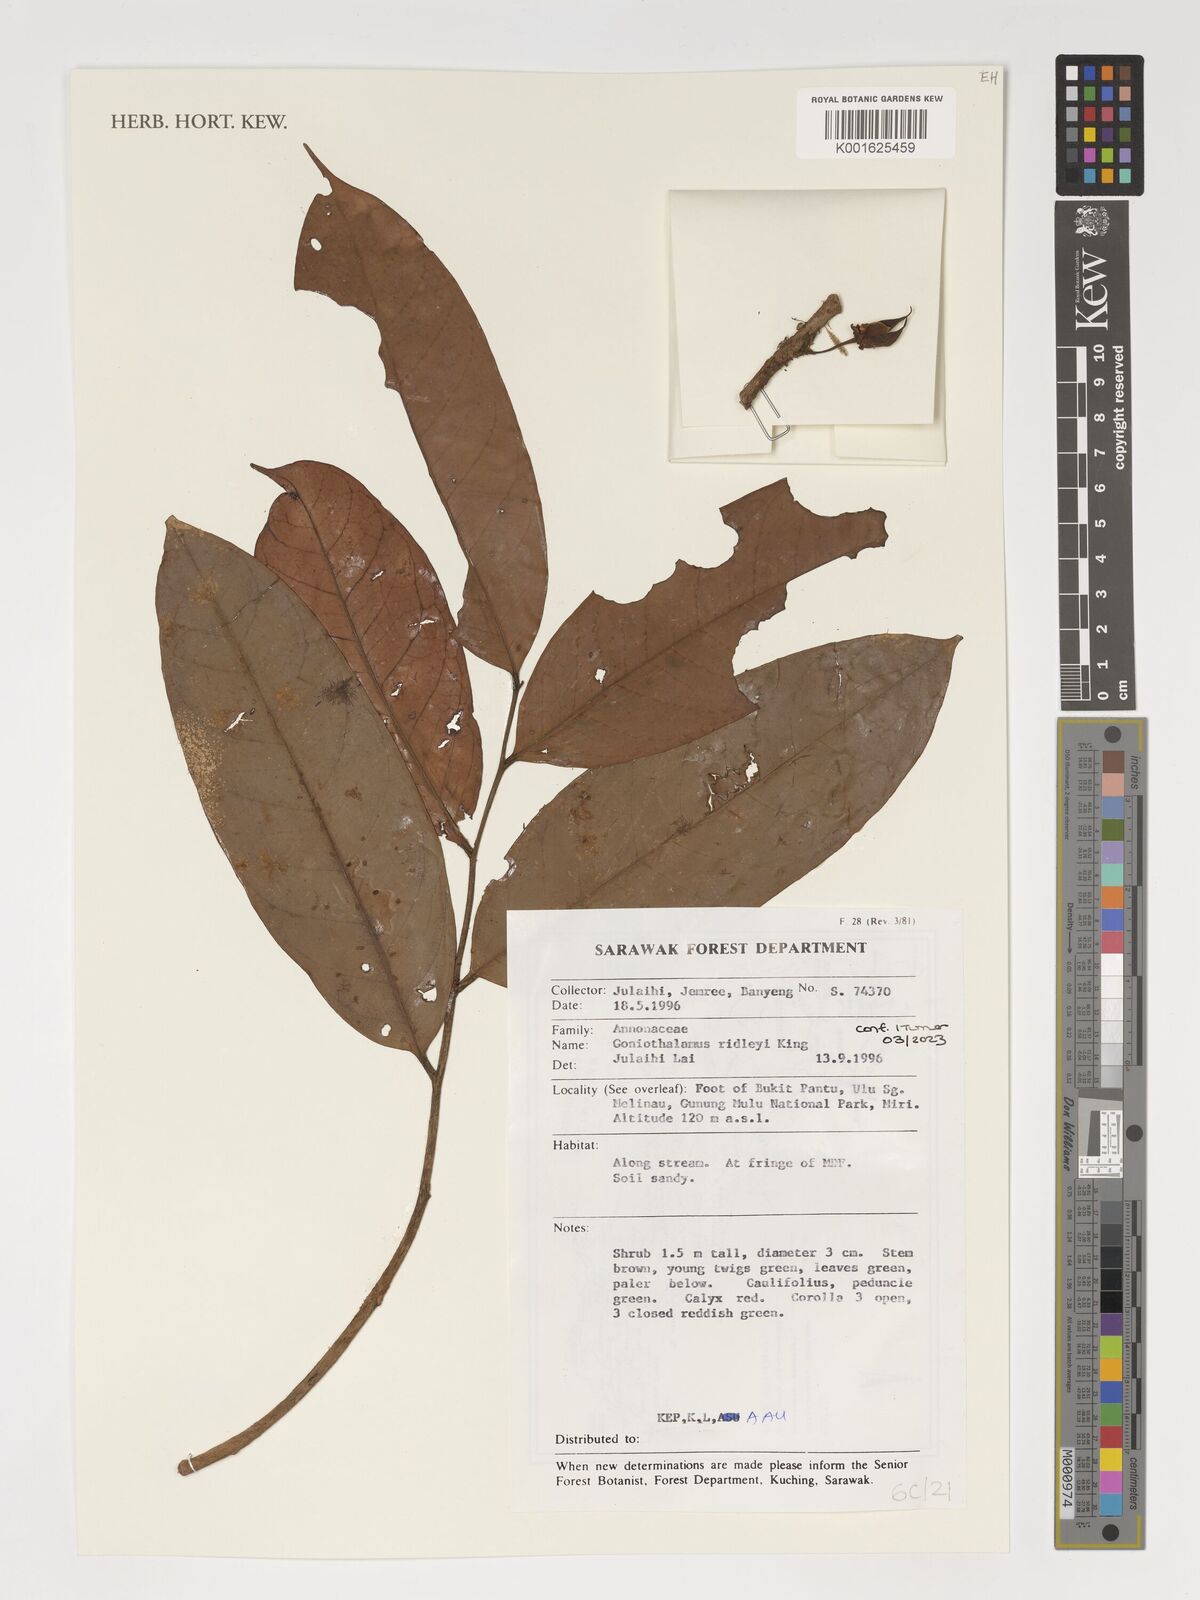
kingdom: Plantae
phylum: Tracheophyta
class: Magnoliopsida
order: Magnoliales
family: Annonaceae
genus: Goniothalamus
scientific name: Goniothalamus ridleyi
